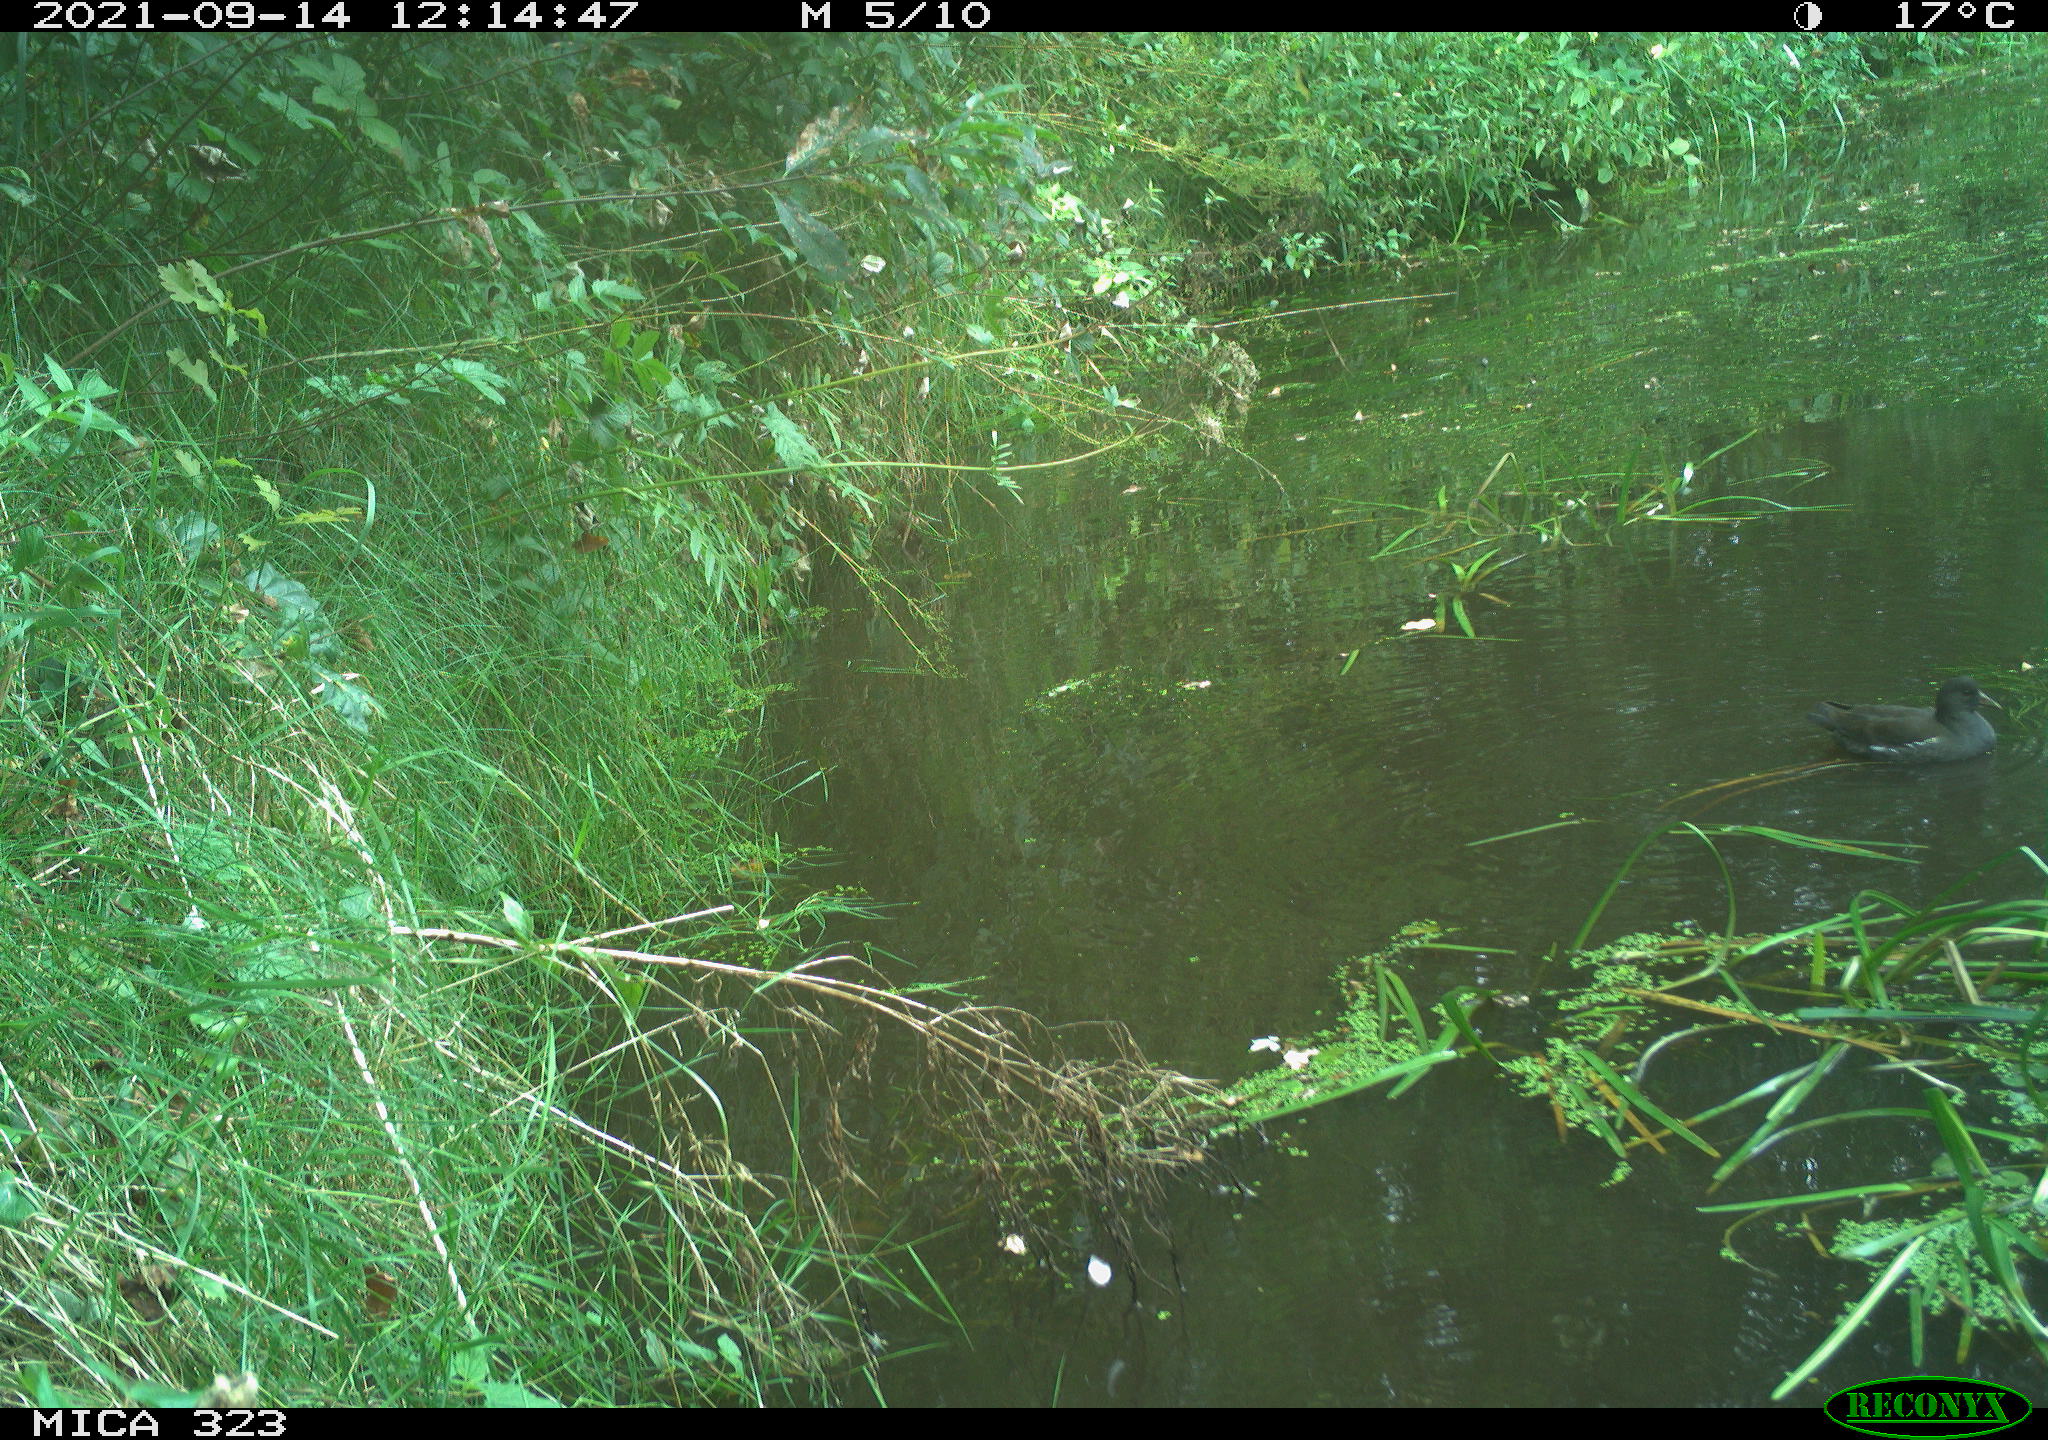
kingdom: Animalia
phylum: Chordata
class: Aves
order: Gruiformes
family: Rallidae
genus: Gallinula
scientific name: Gallinula chloropus
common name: Common moorhen
